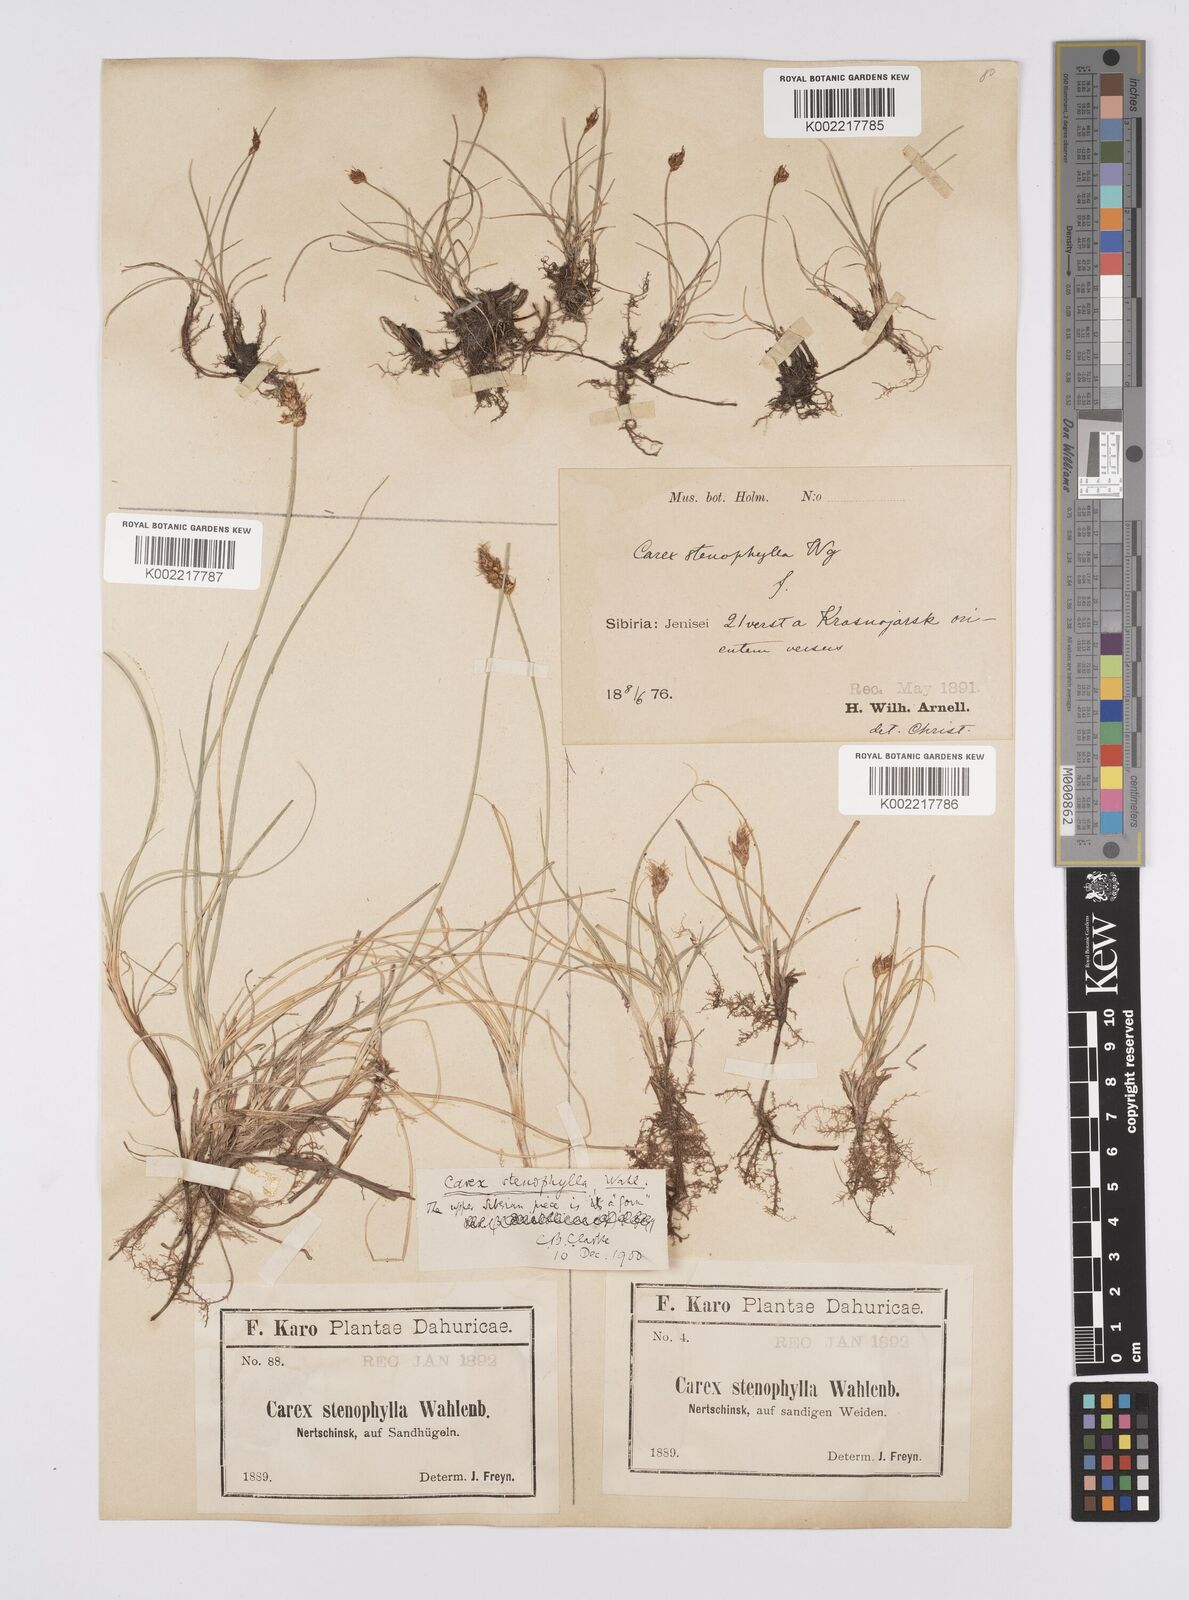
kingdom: Plantae
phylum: Tracheophyta
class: Liliopsida
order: Poales
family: Cyperaceae
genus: Carex
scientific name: Carex stenophylla
